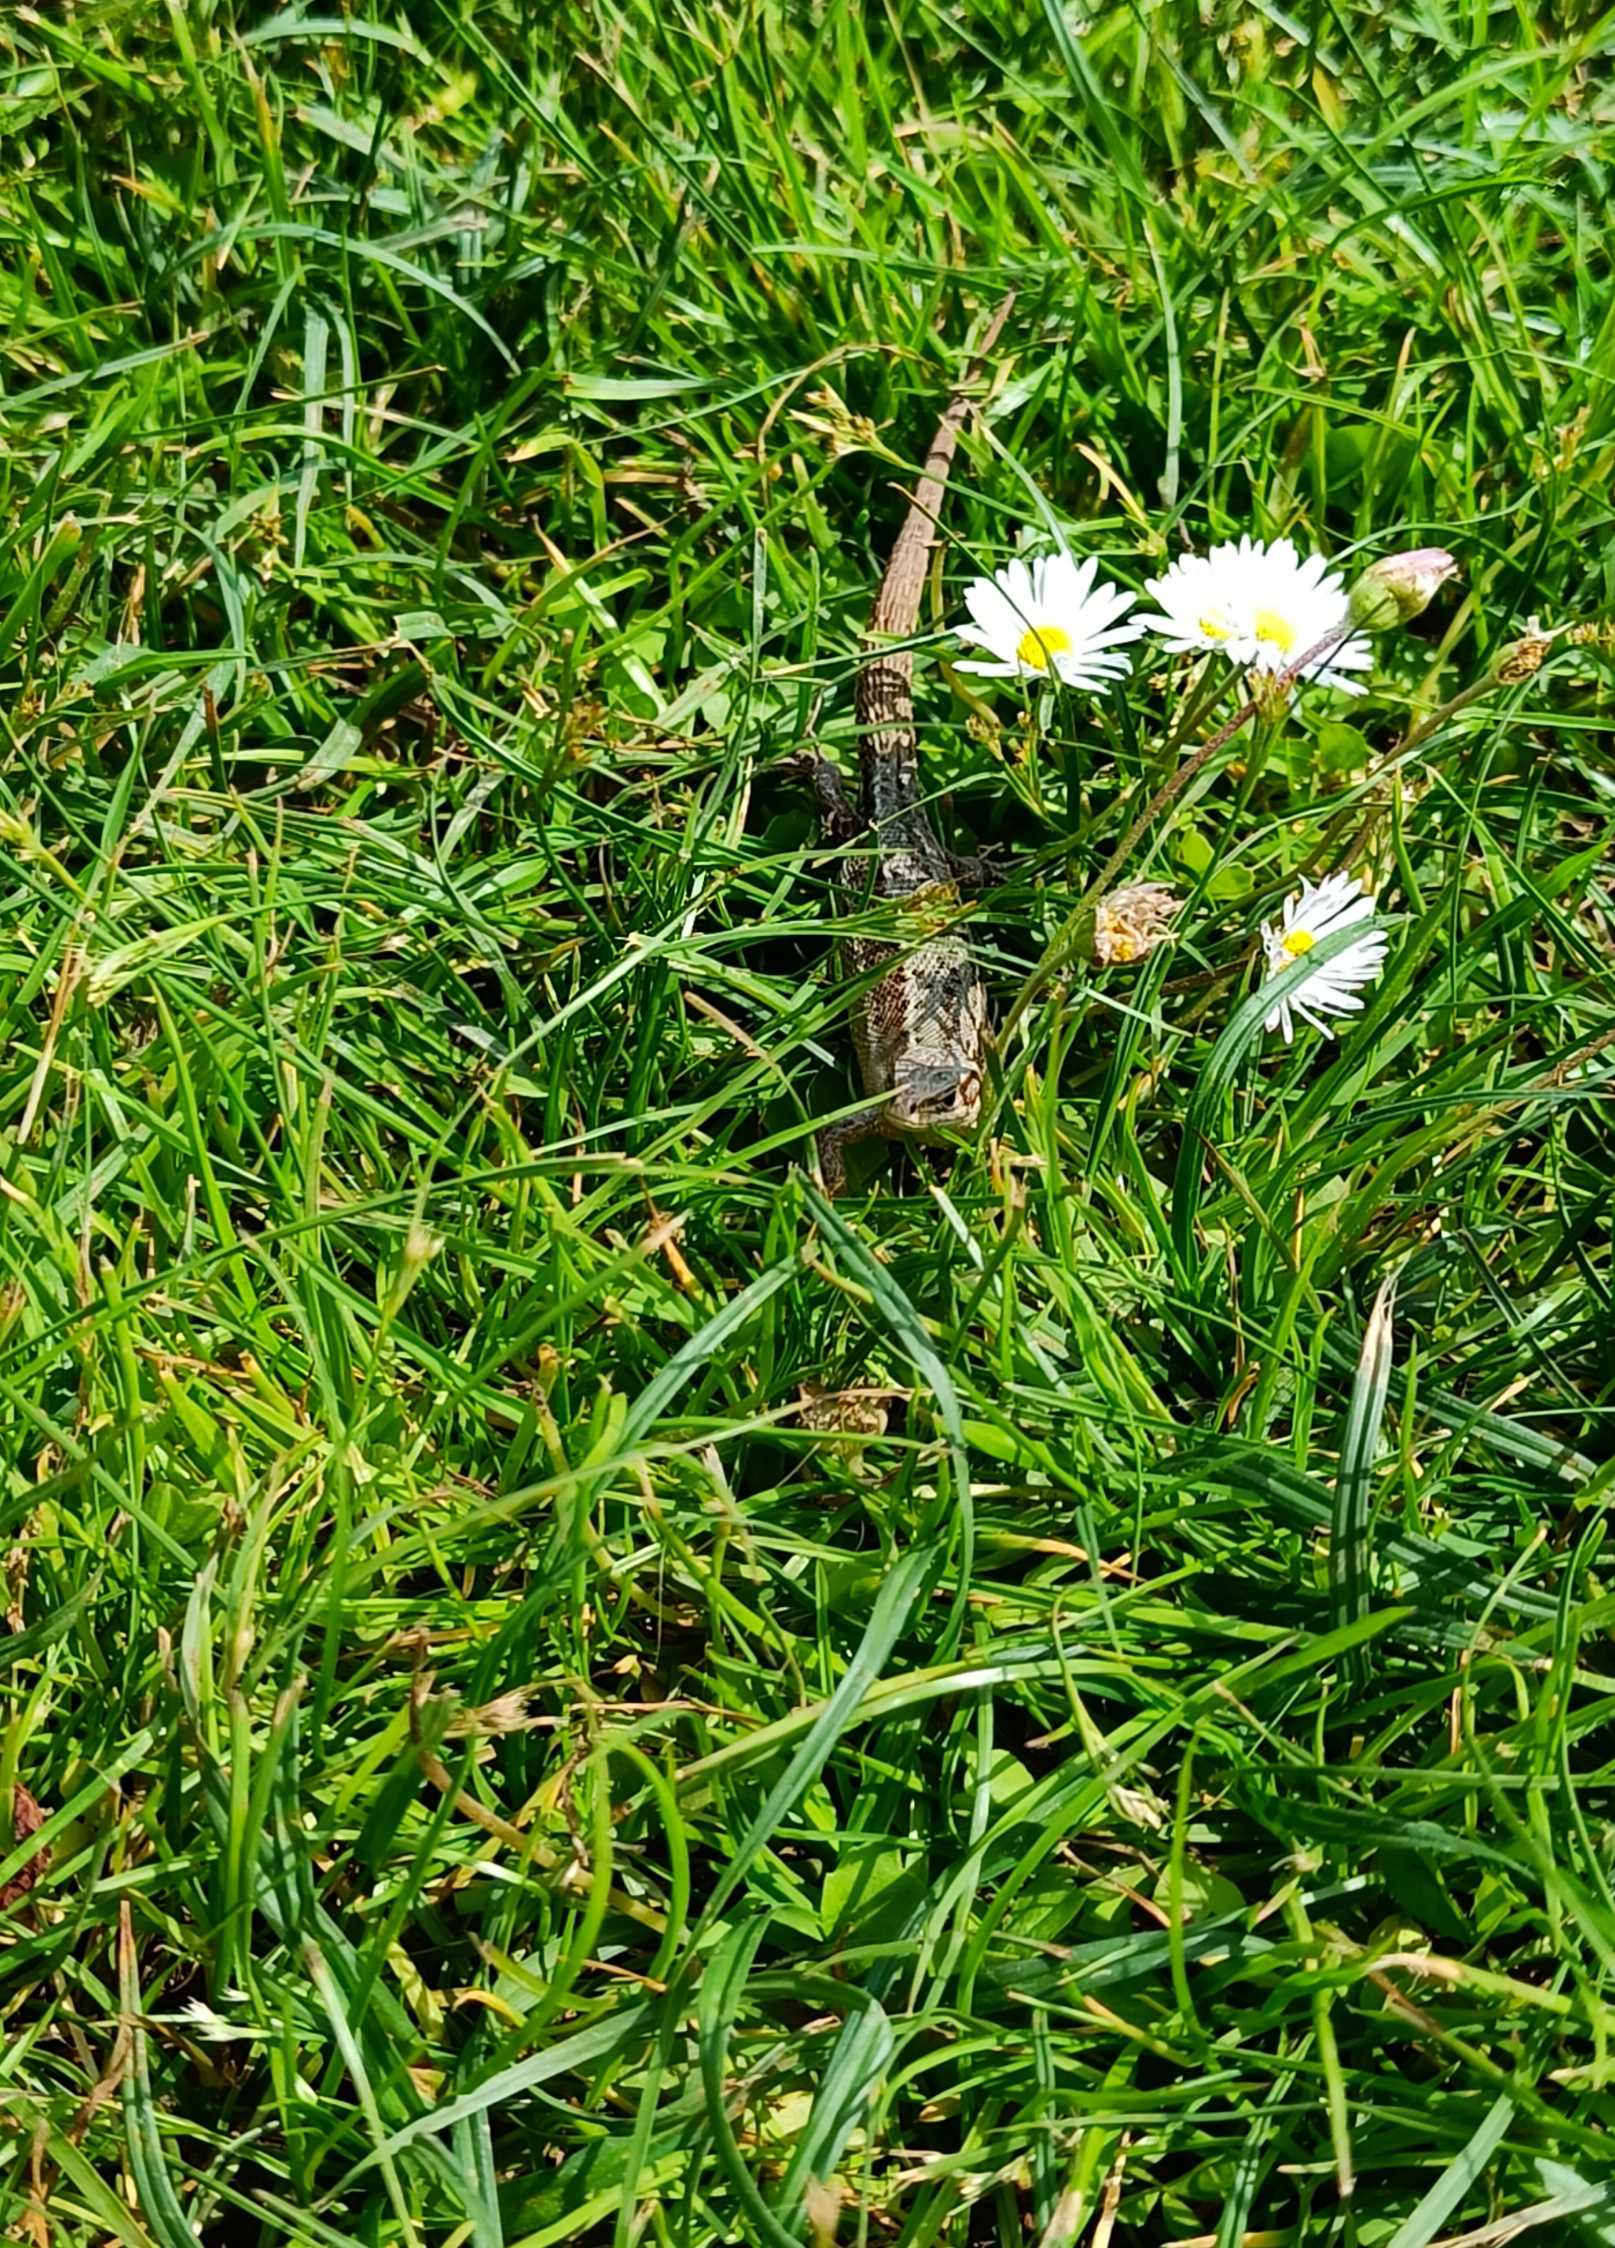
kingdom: Animalia
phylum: Chordata
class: Squamata
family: Lacertidae
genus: Zootoca
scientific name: Zootoca vivipara
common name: Skovfirben
